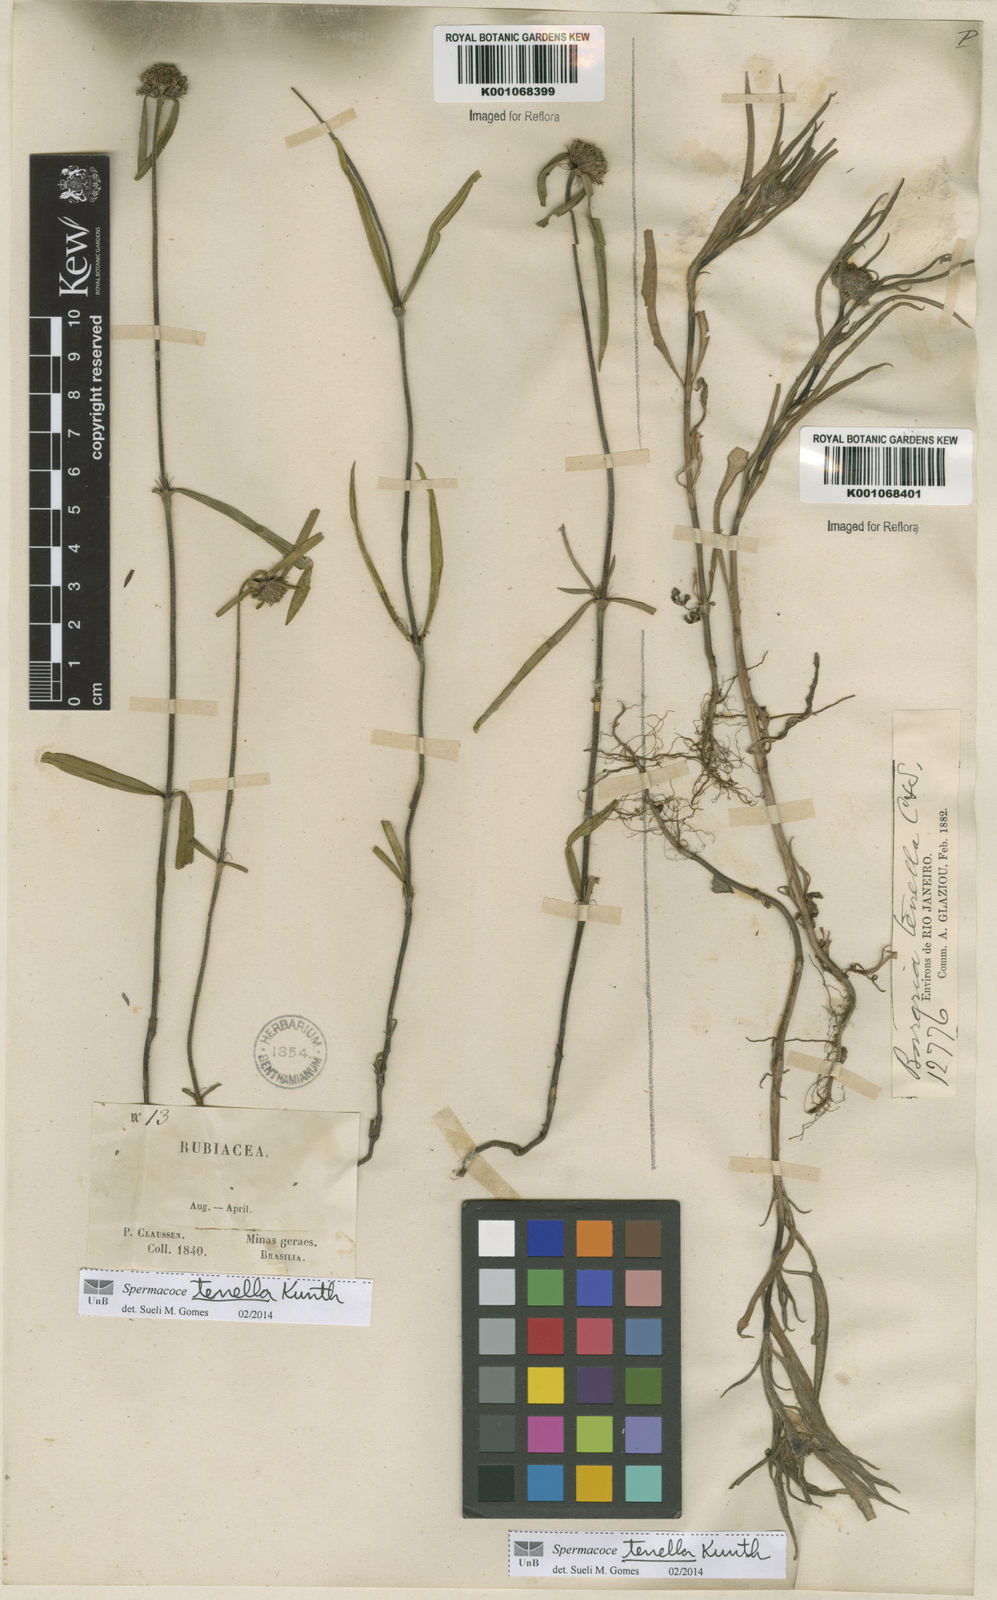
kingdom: Plantae
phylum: Tracheophyta
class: Magnoliopsida
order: Gentianales
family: Rubiaceae
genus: Spermacoce
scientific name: Spermacoce orinocensis
